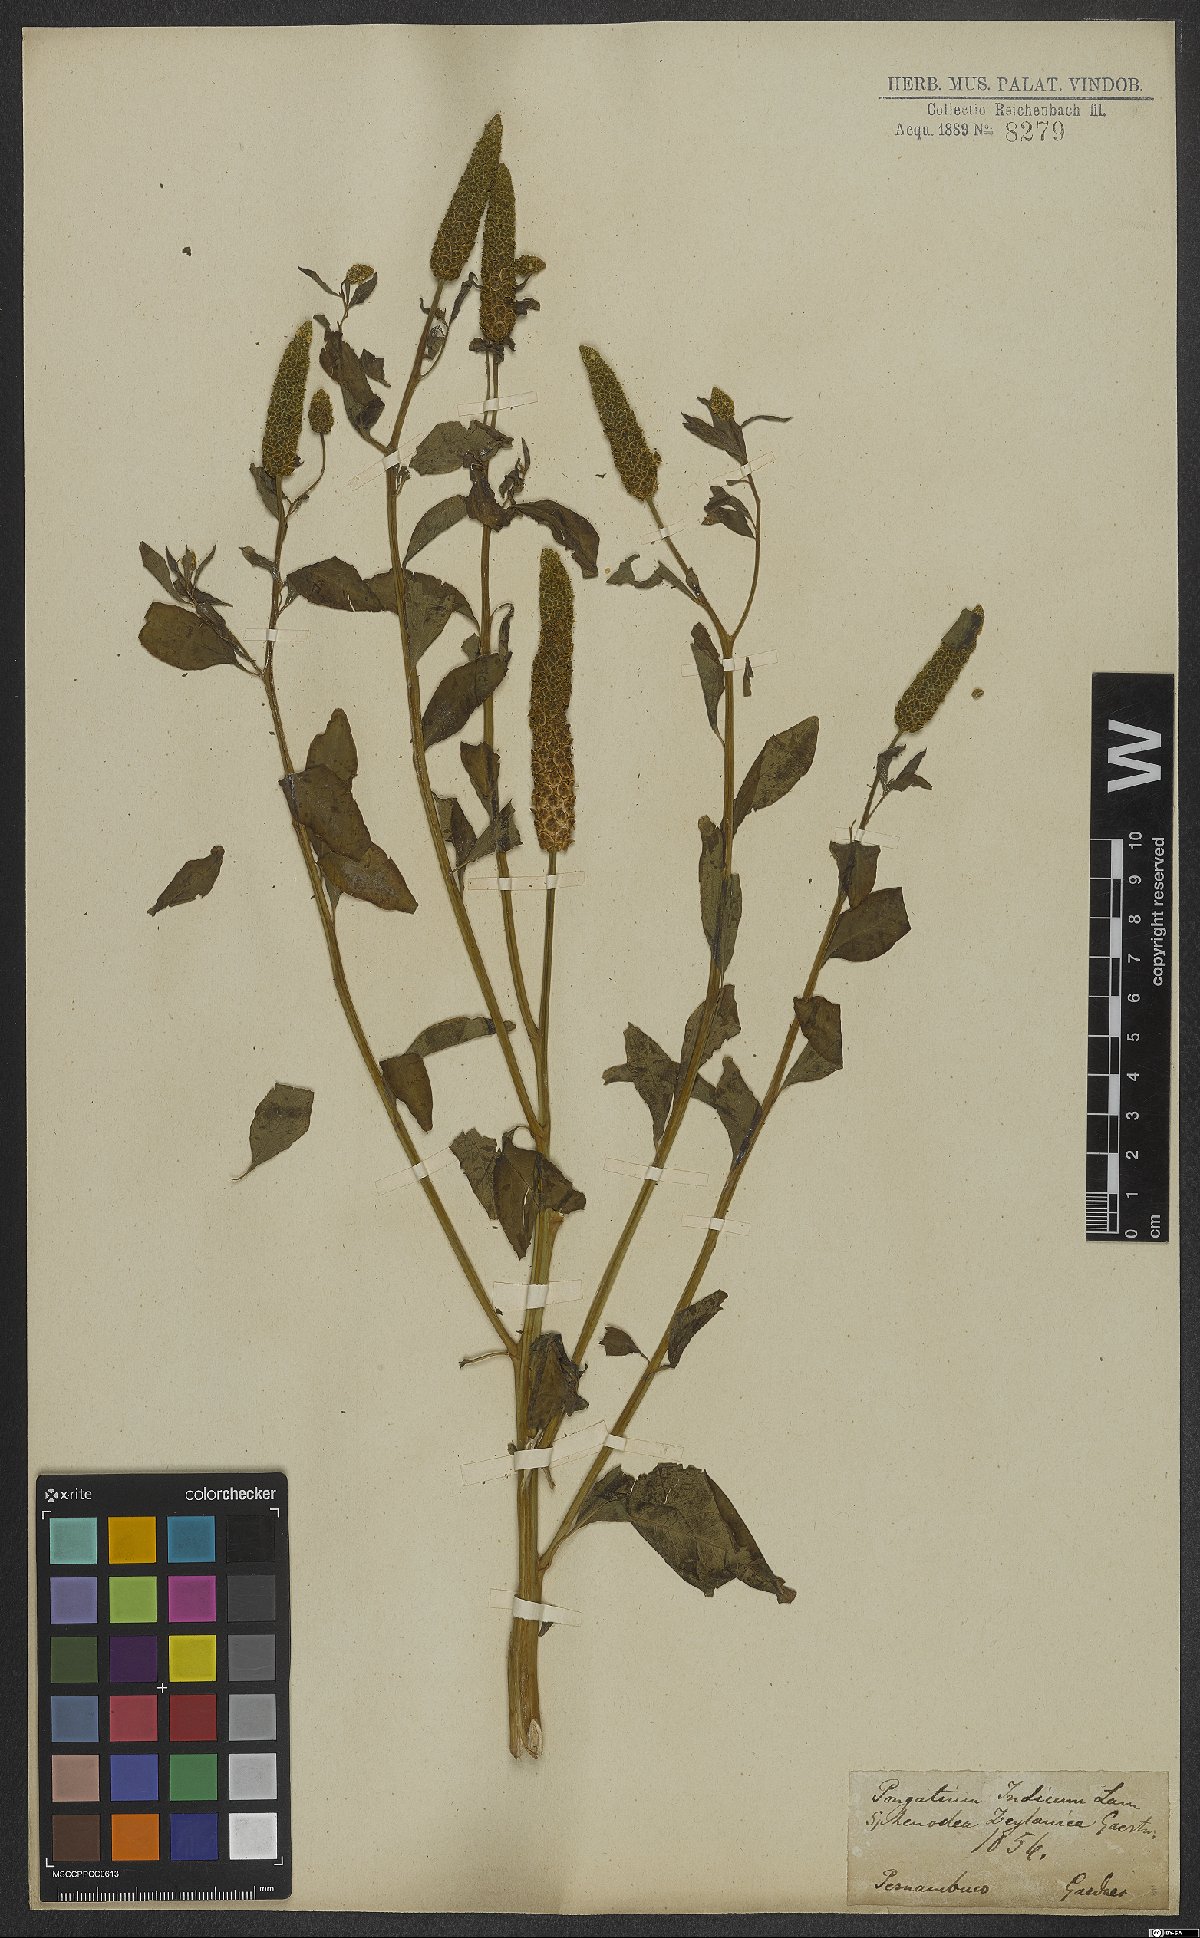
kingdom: Plantae
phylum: Tracheophyta
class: Magnoliopsida
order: Solanales
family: Sphenocleaceae
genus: Sphenoclea
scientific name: Sphenoclea zeylanica
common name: Chickenspike
